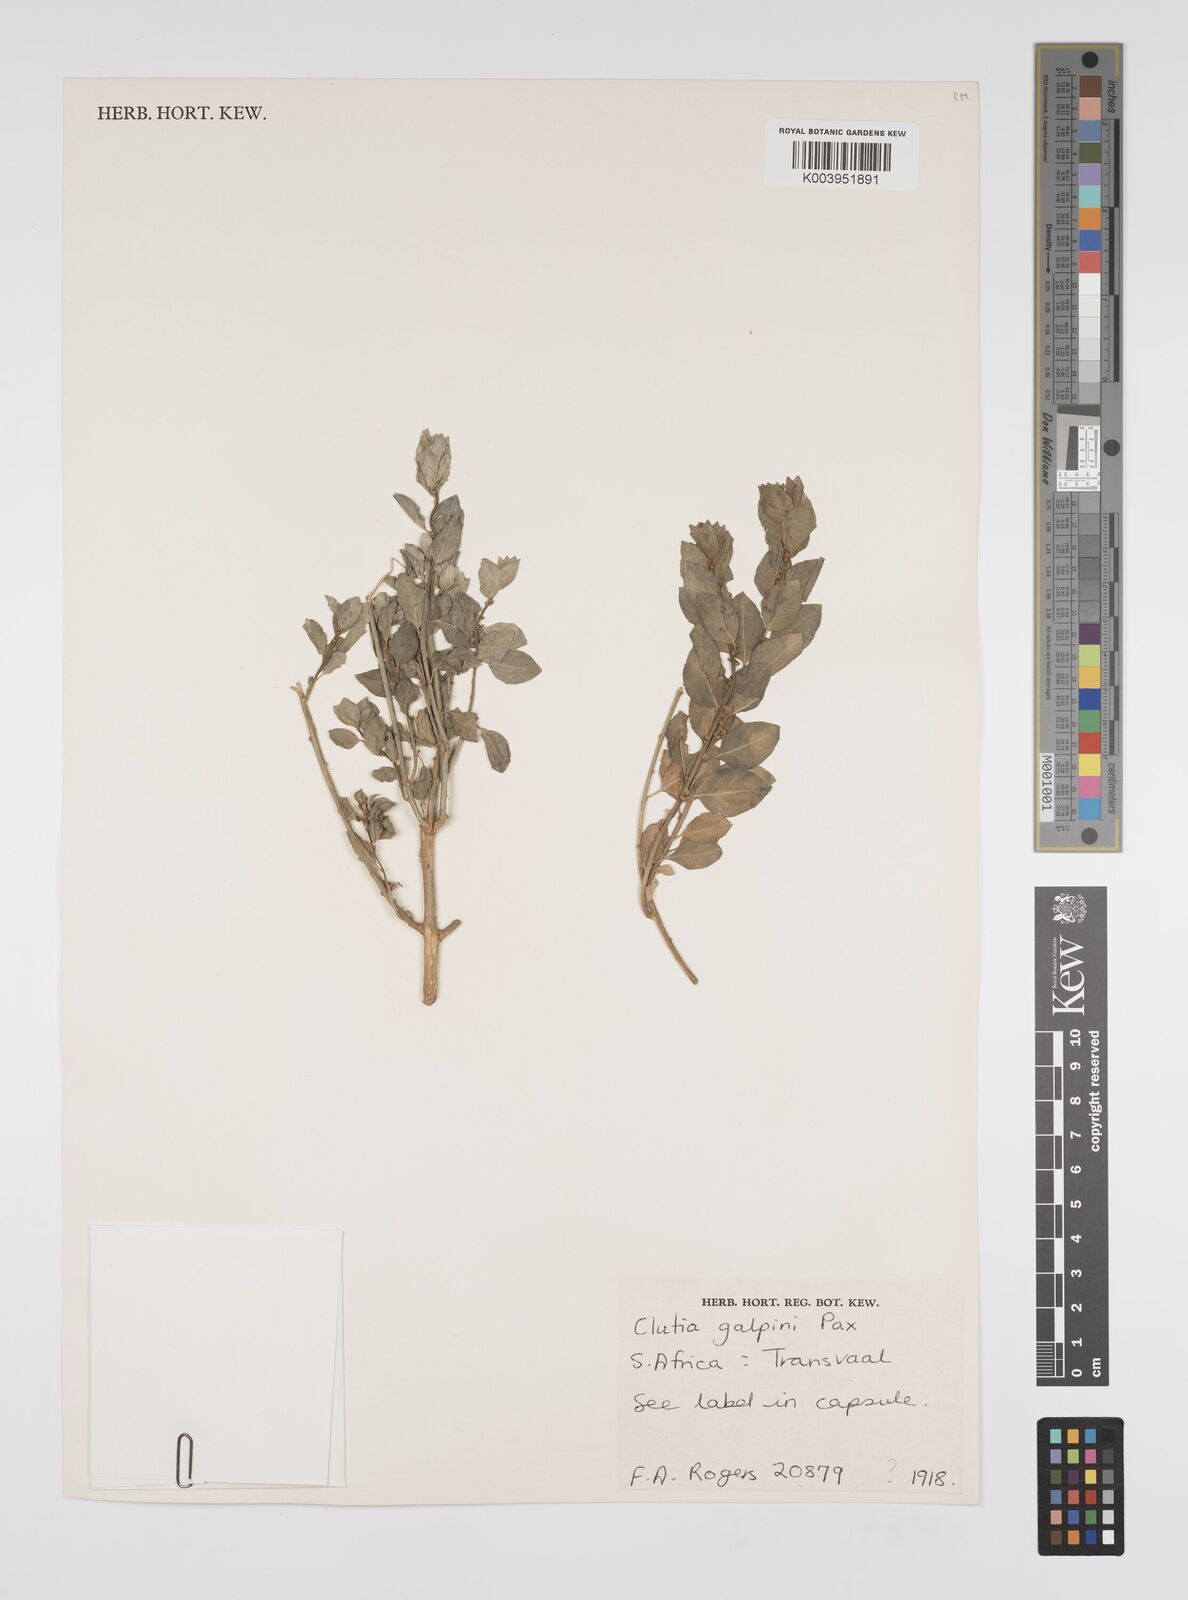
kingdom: Plantae
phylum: Tracheophyta
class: Magnoliopsida
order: Malpighiales
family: Peraceae
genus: Clutia
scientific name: Clutia galpinii
